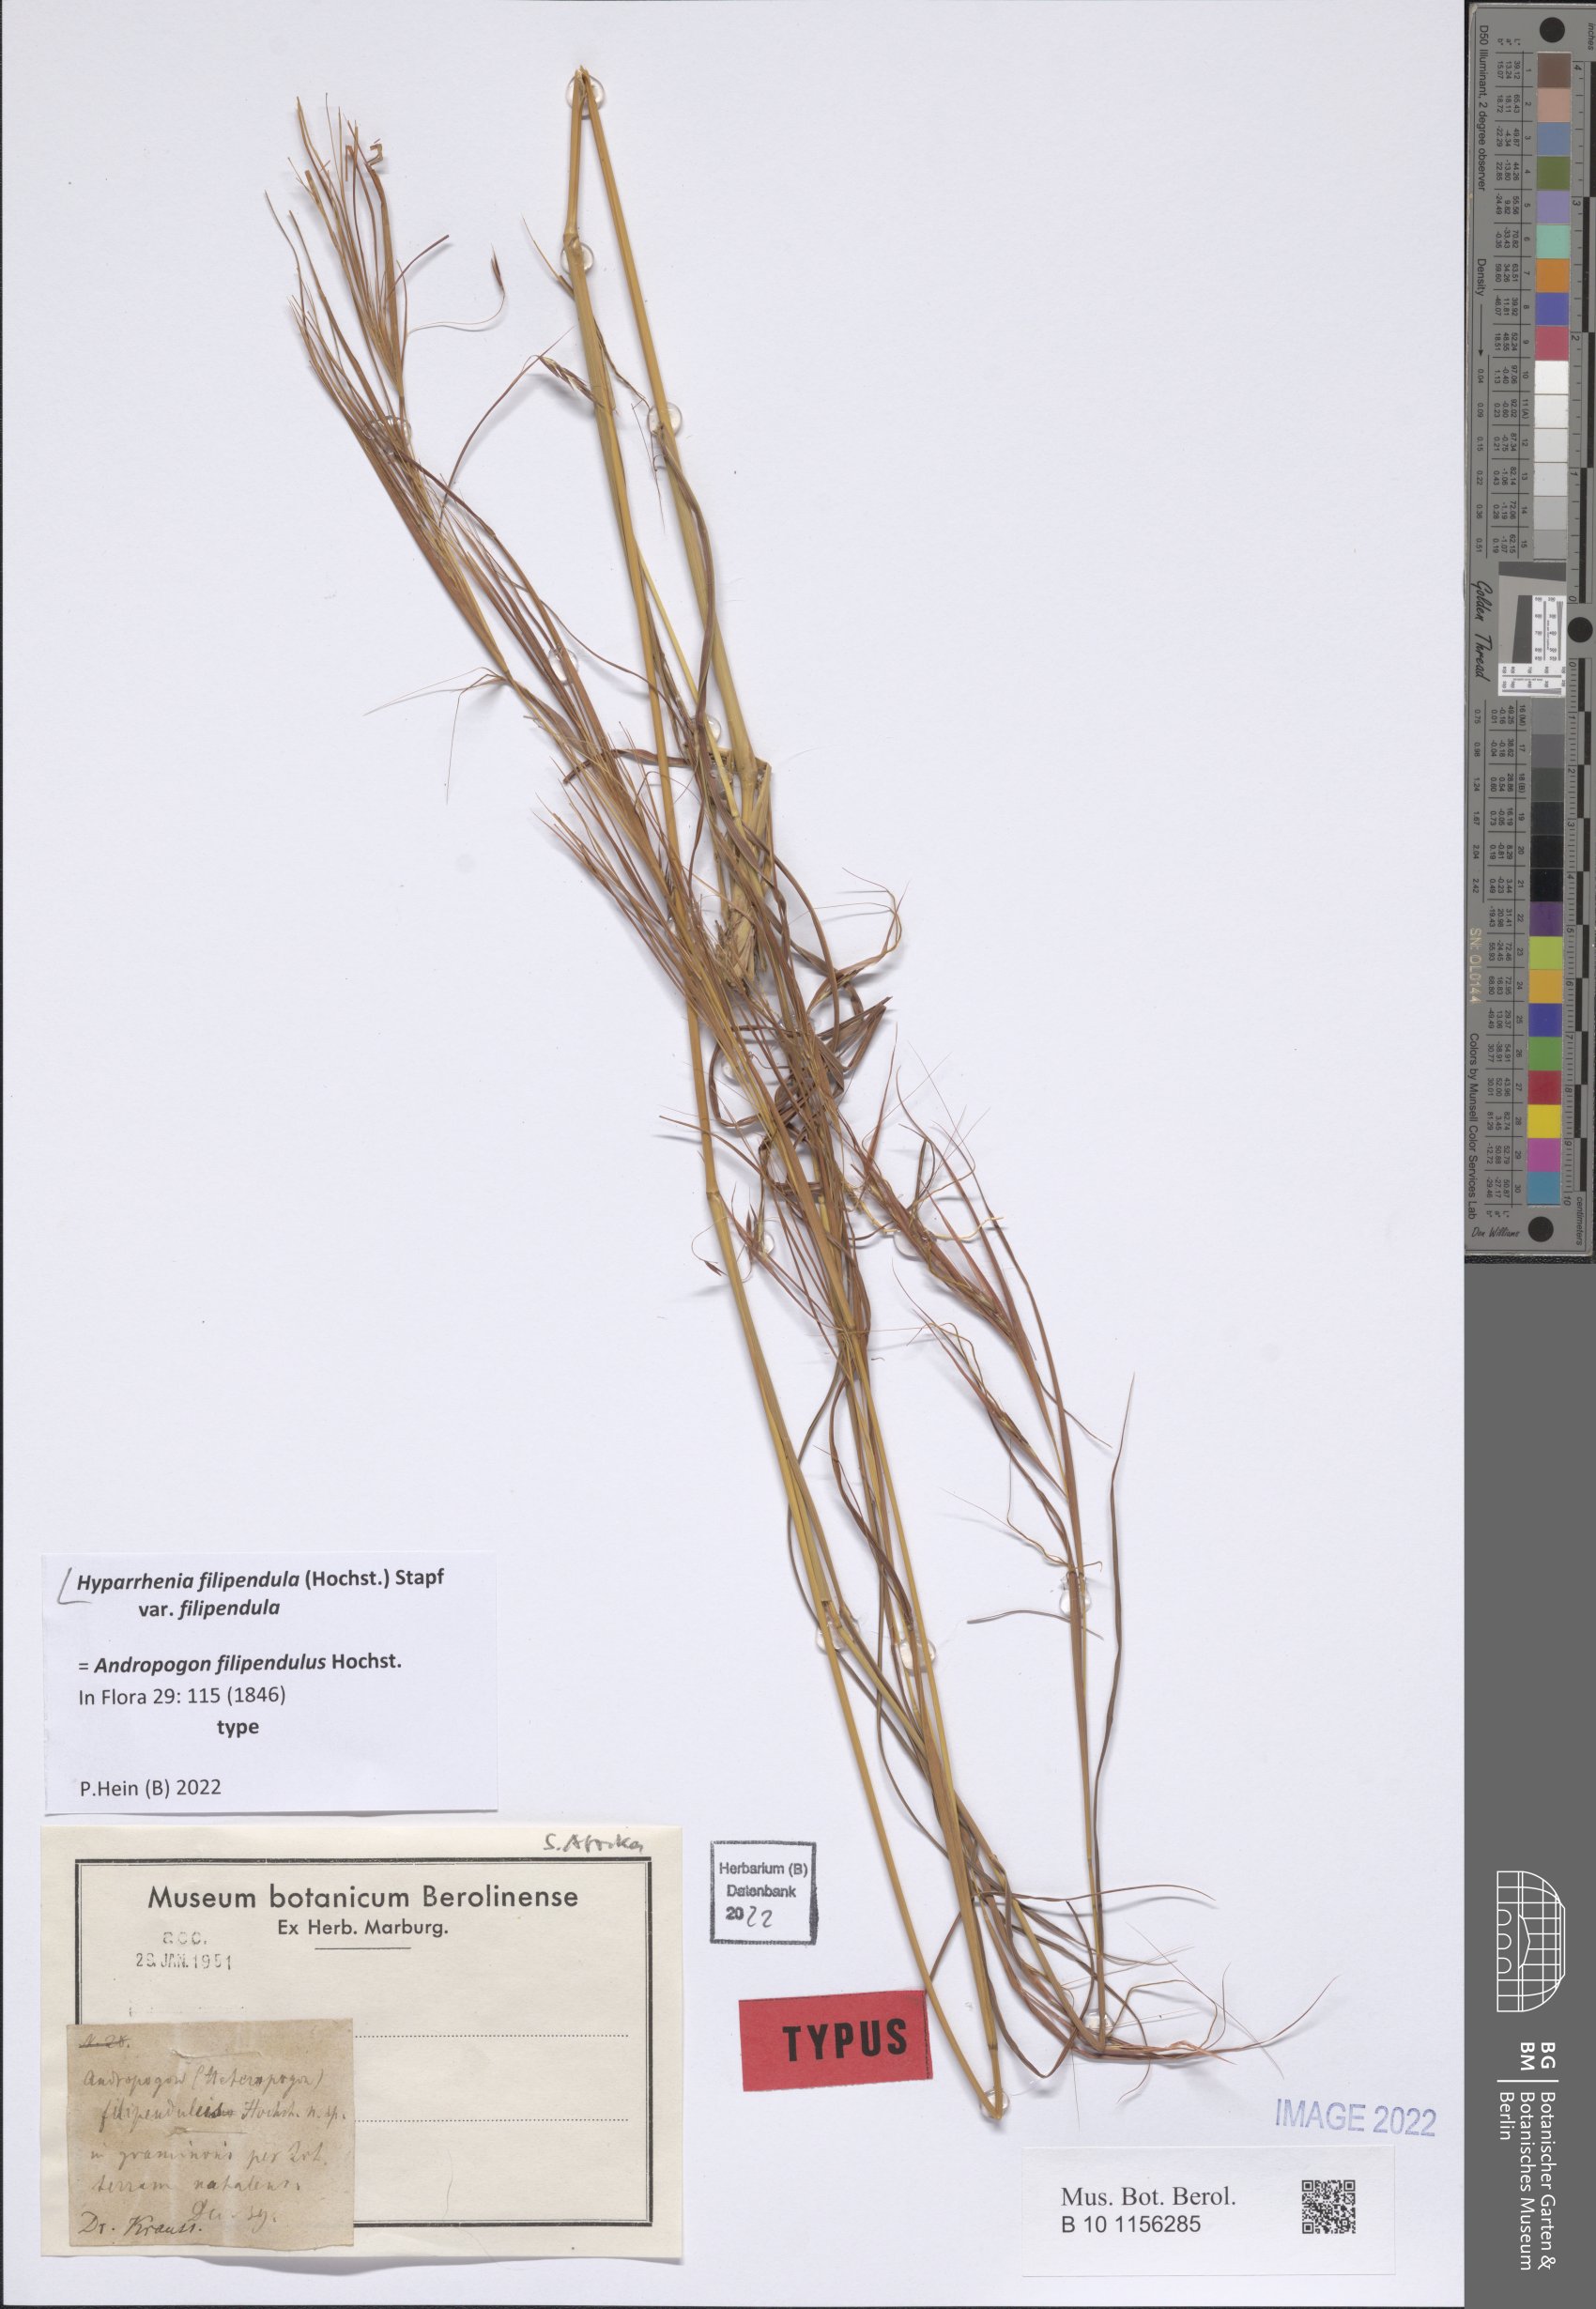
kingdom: Plantae
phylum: Tracheophyta
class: Liliopsida
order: Poales
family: Poaceae
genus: Hyparrhenia
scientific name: Hyparrhenia filipendula
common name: Tambookie grass
